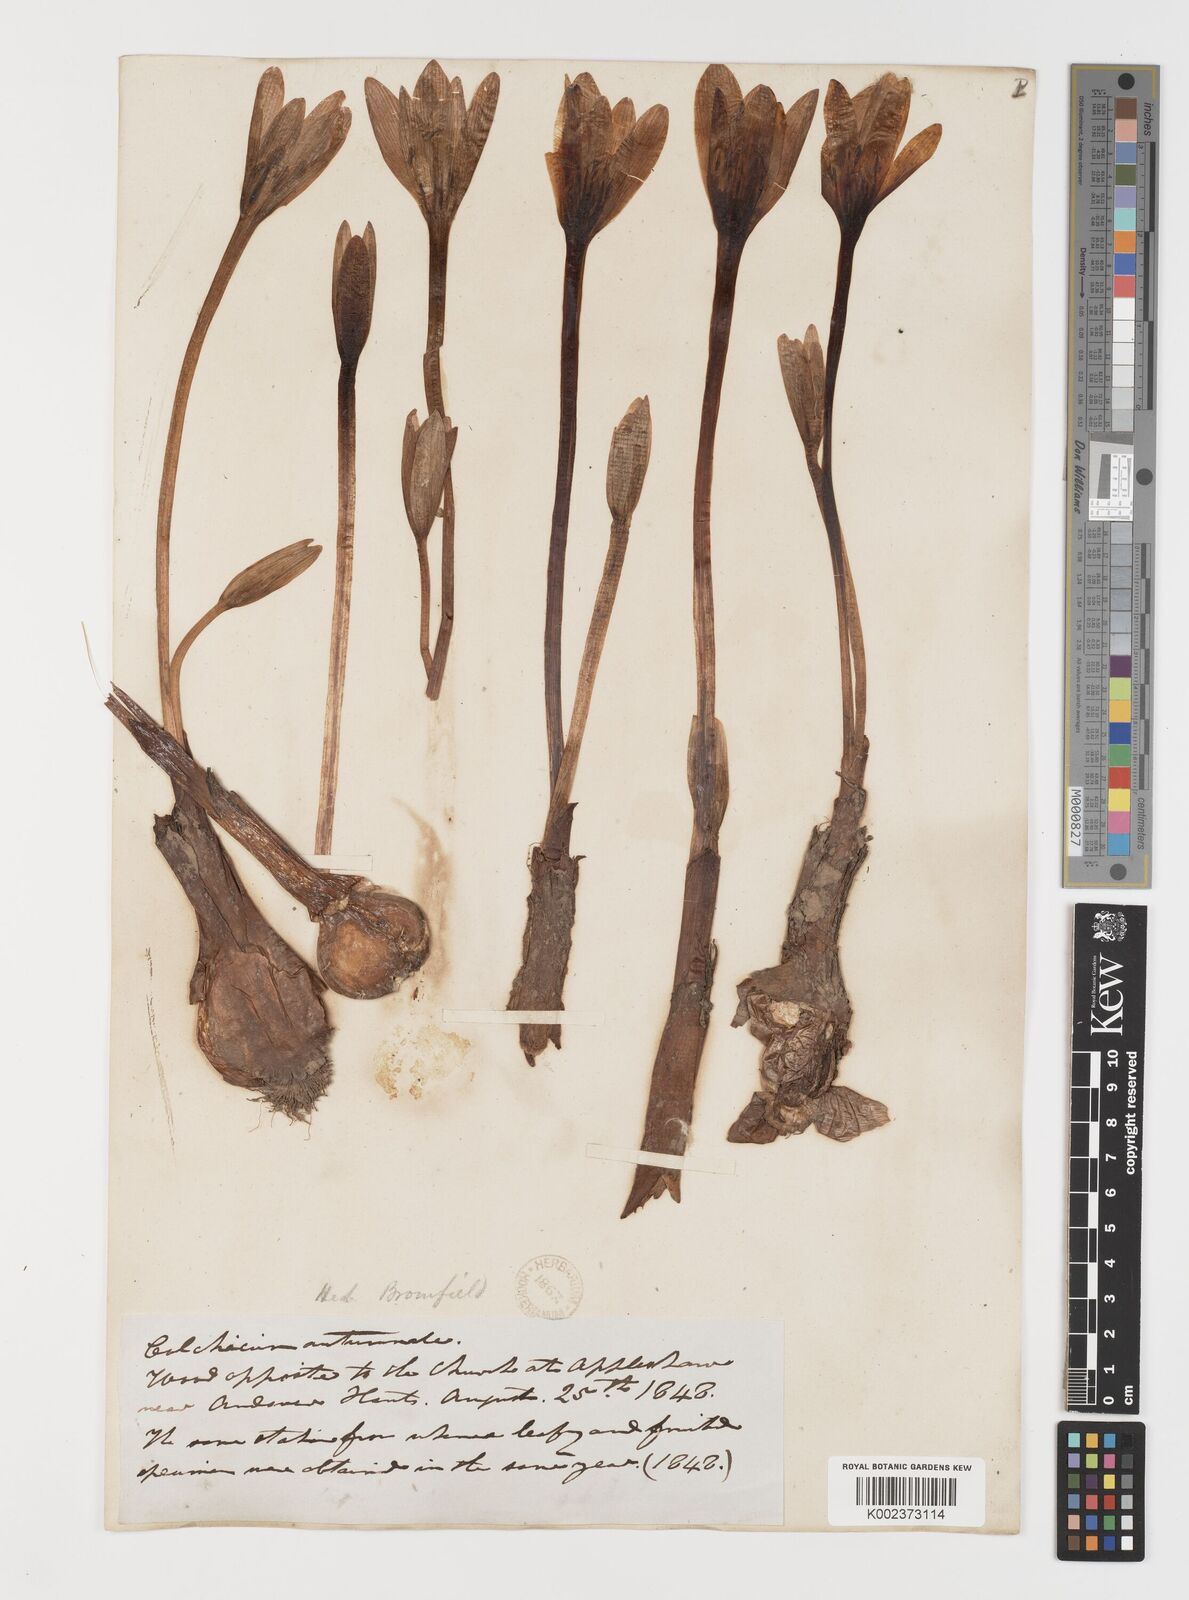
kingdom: Plantae
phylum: Tracheophyta
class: Liliopsida
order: Liliales
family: Colchicaceae
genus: Colchicum
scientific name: Colchicum autumnale
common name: Autumn crocus
